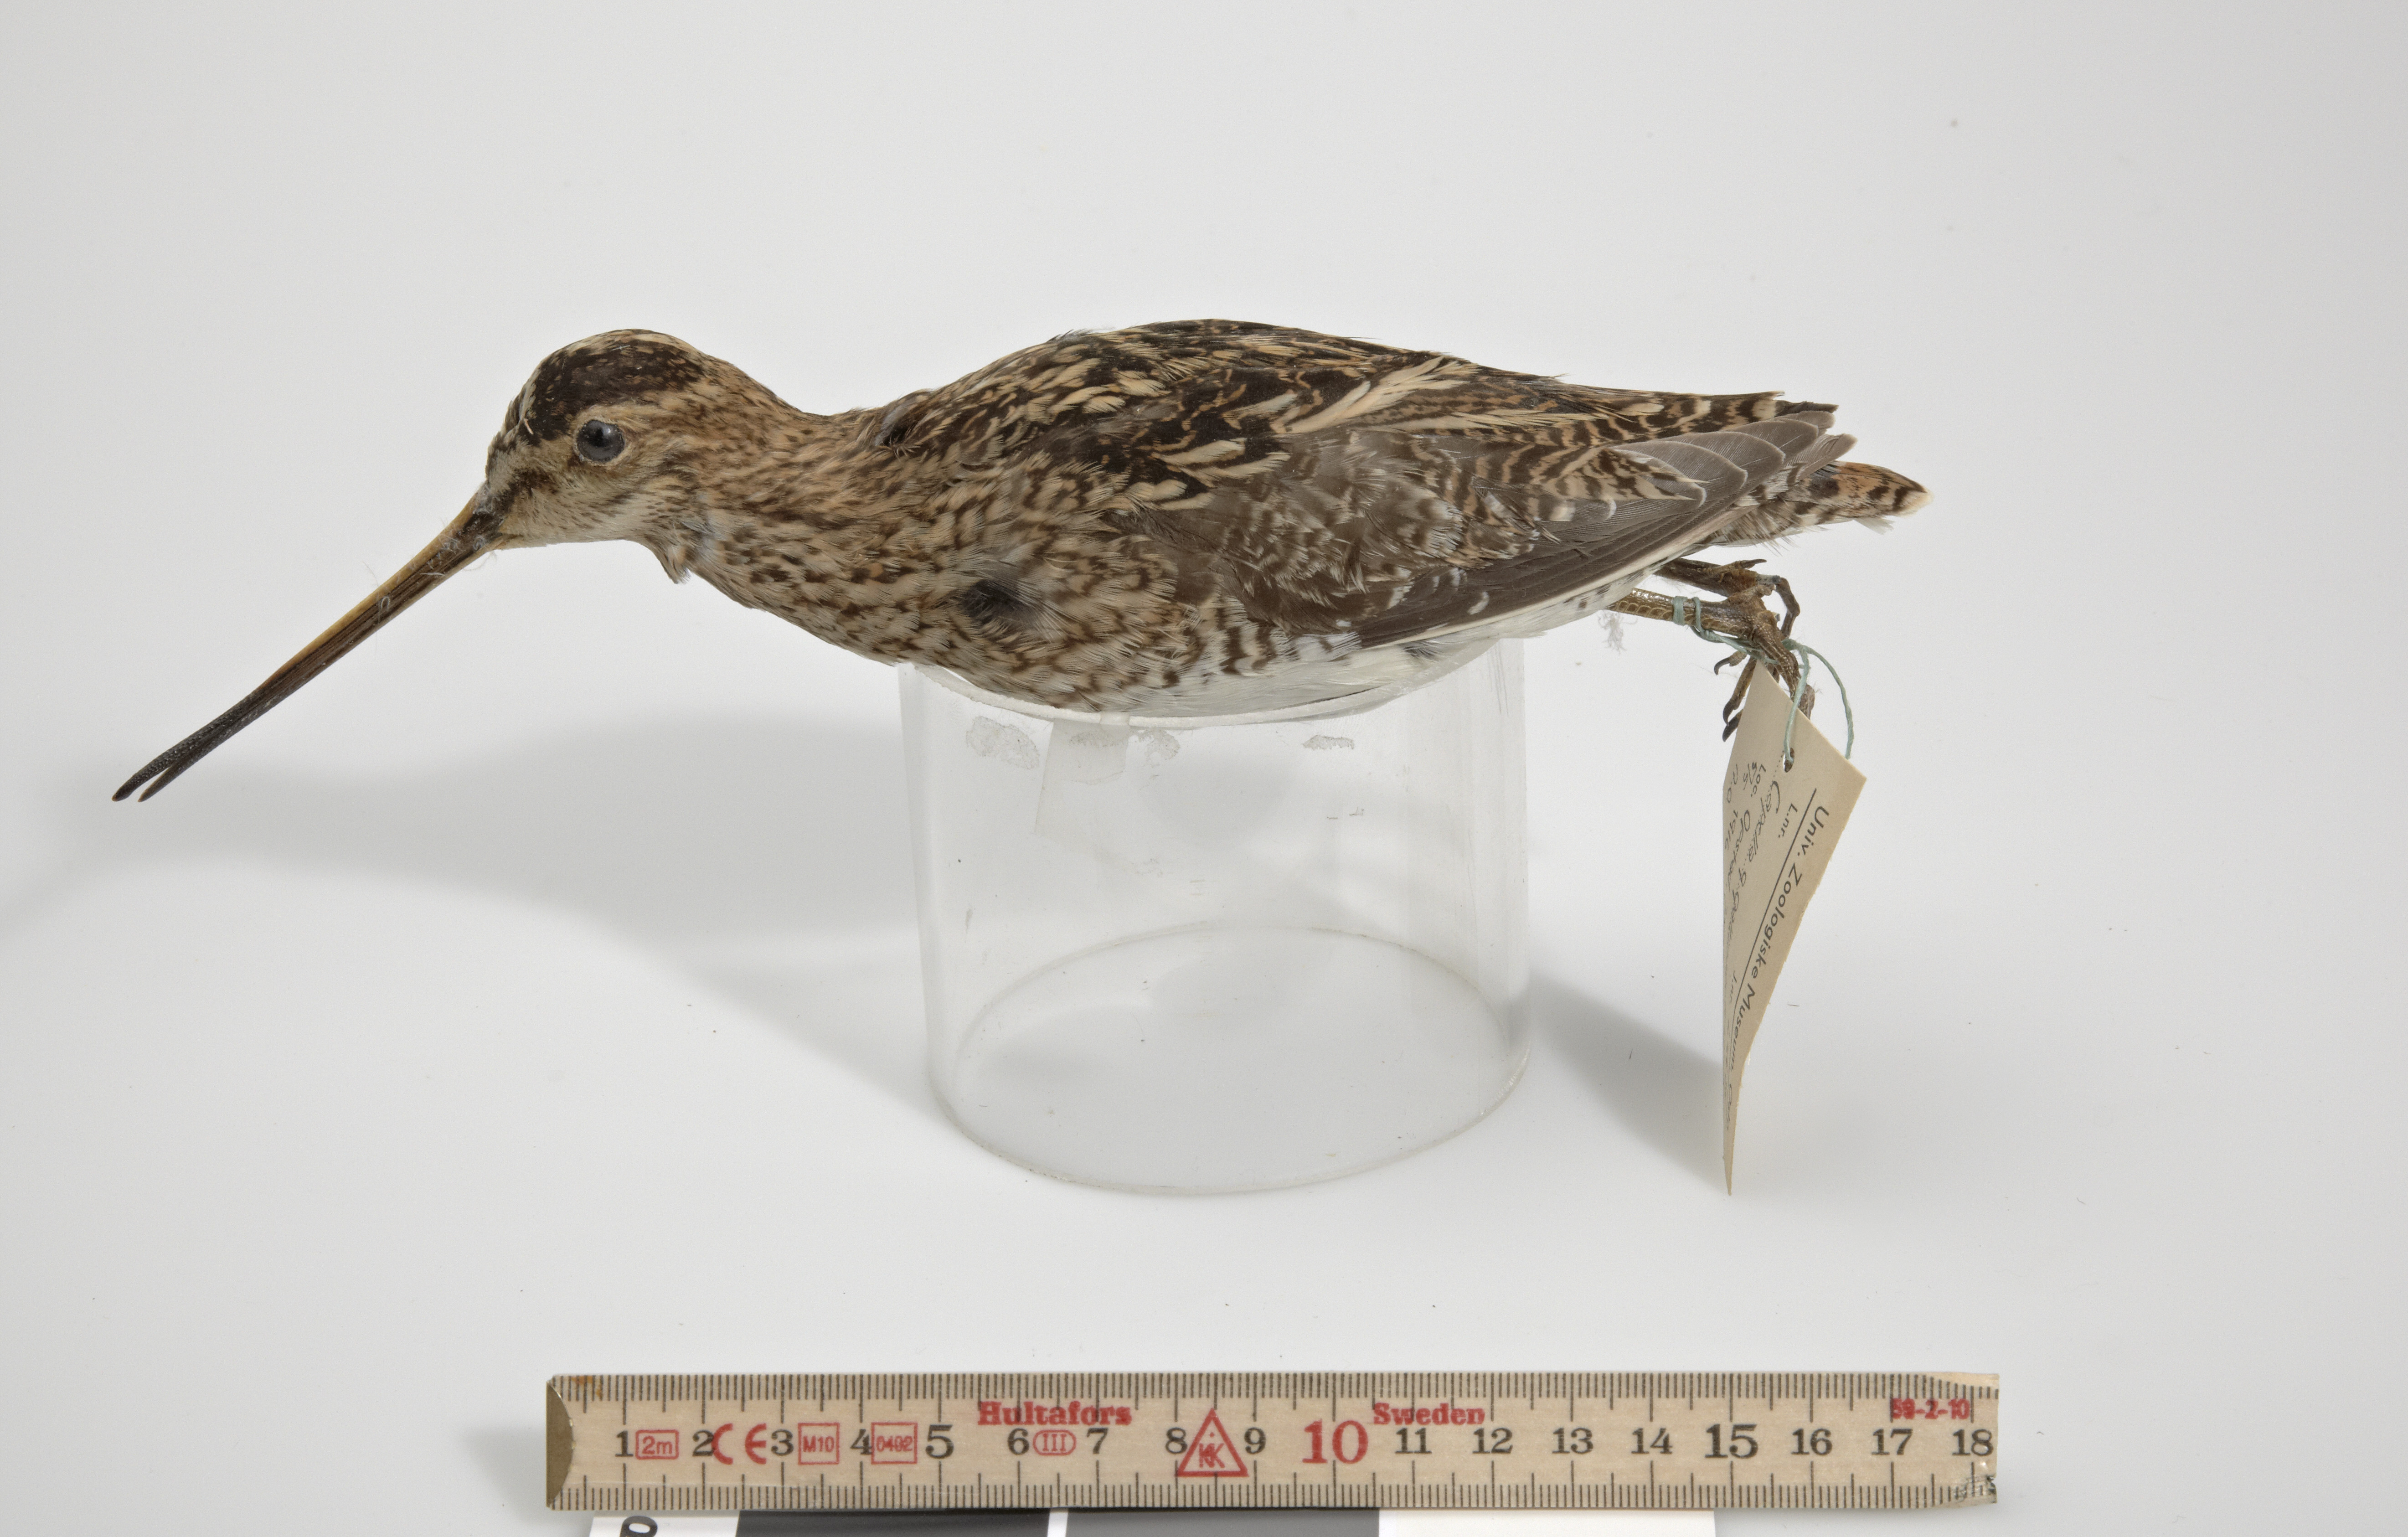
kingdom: Animalia
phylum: Chordata
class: Aves
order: Charadriiformes
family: Scolopacidae
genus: Gallinago
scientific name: Gallinago gallinago
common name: Common snipe
